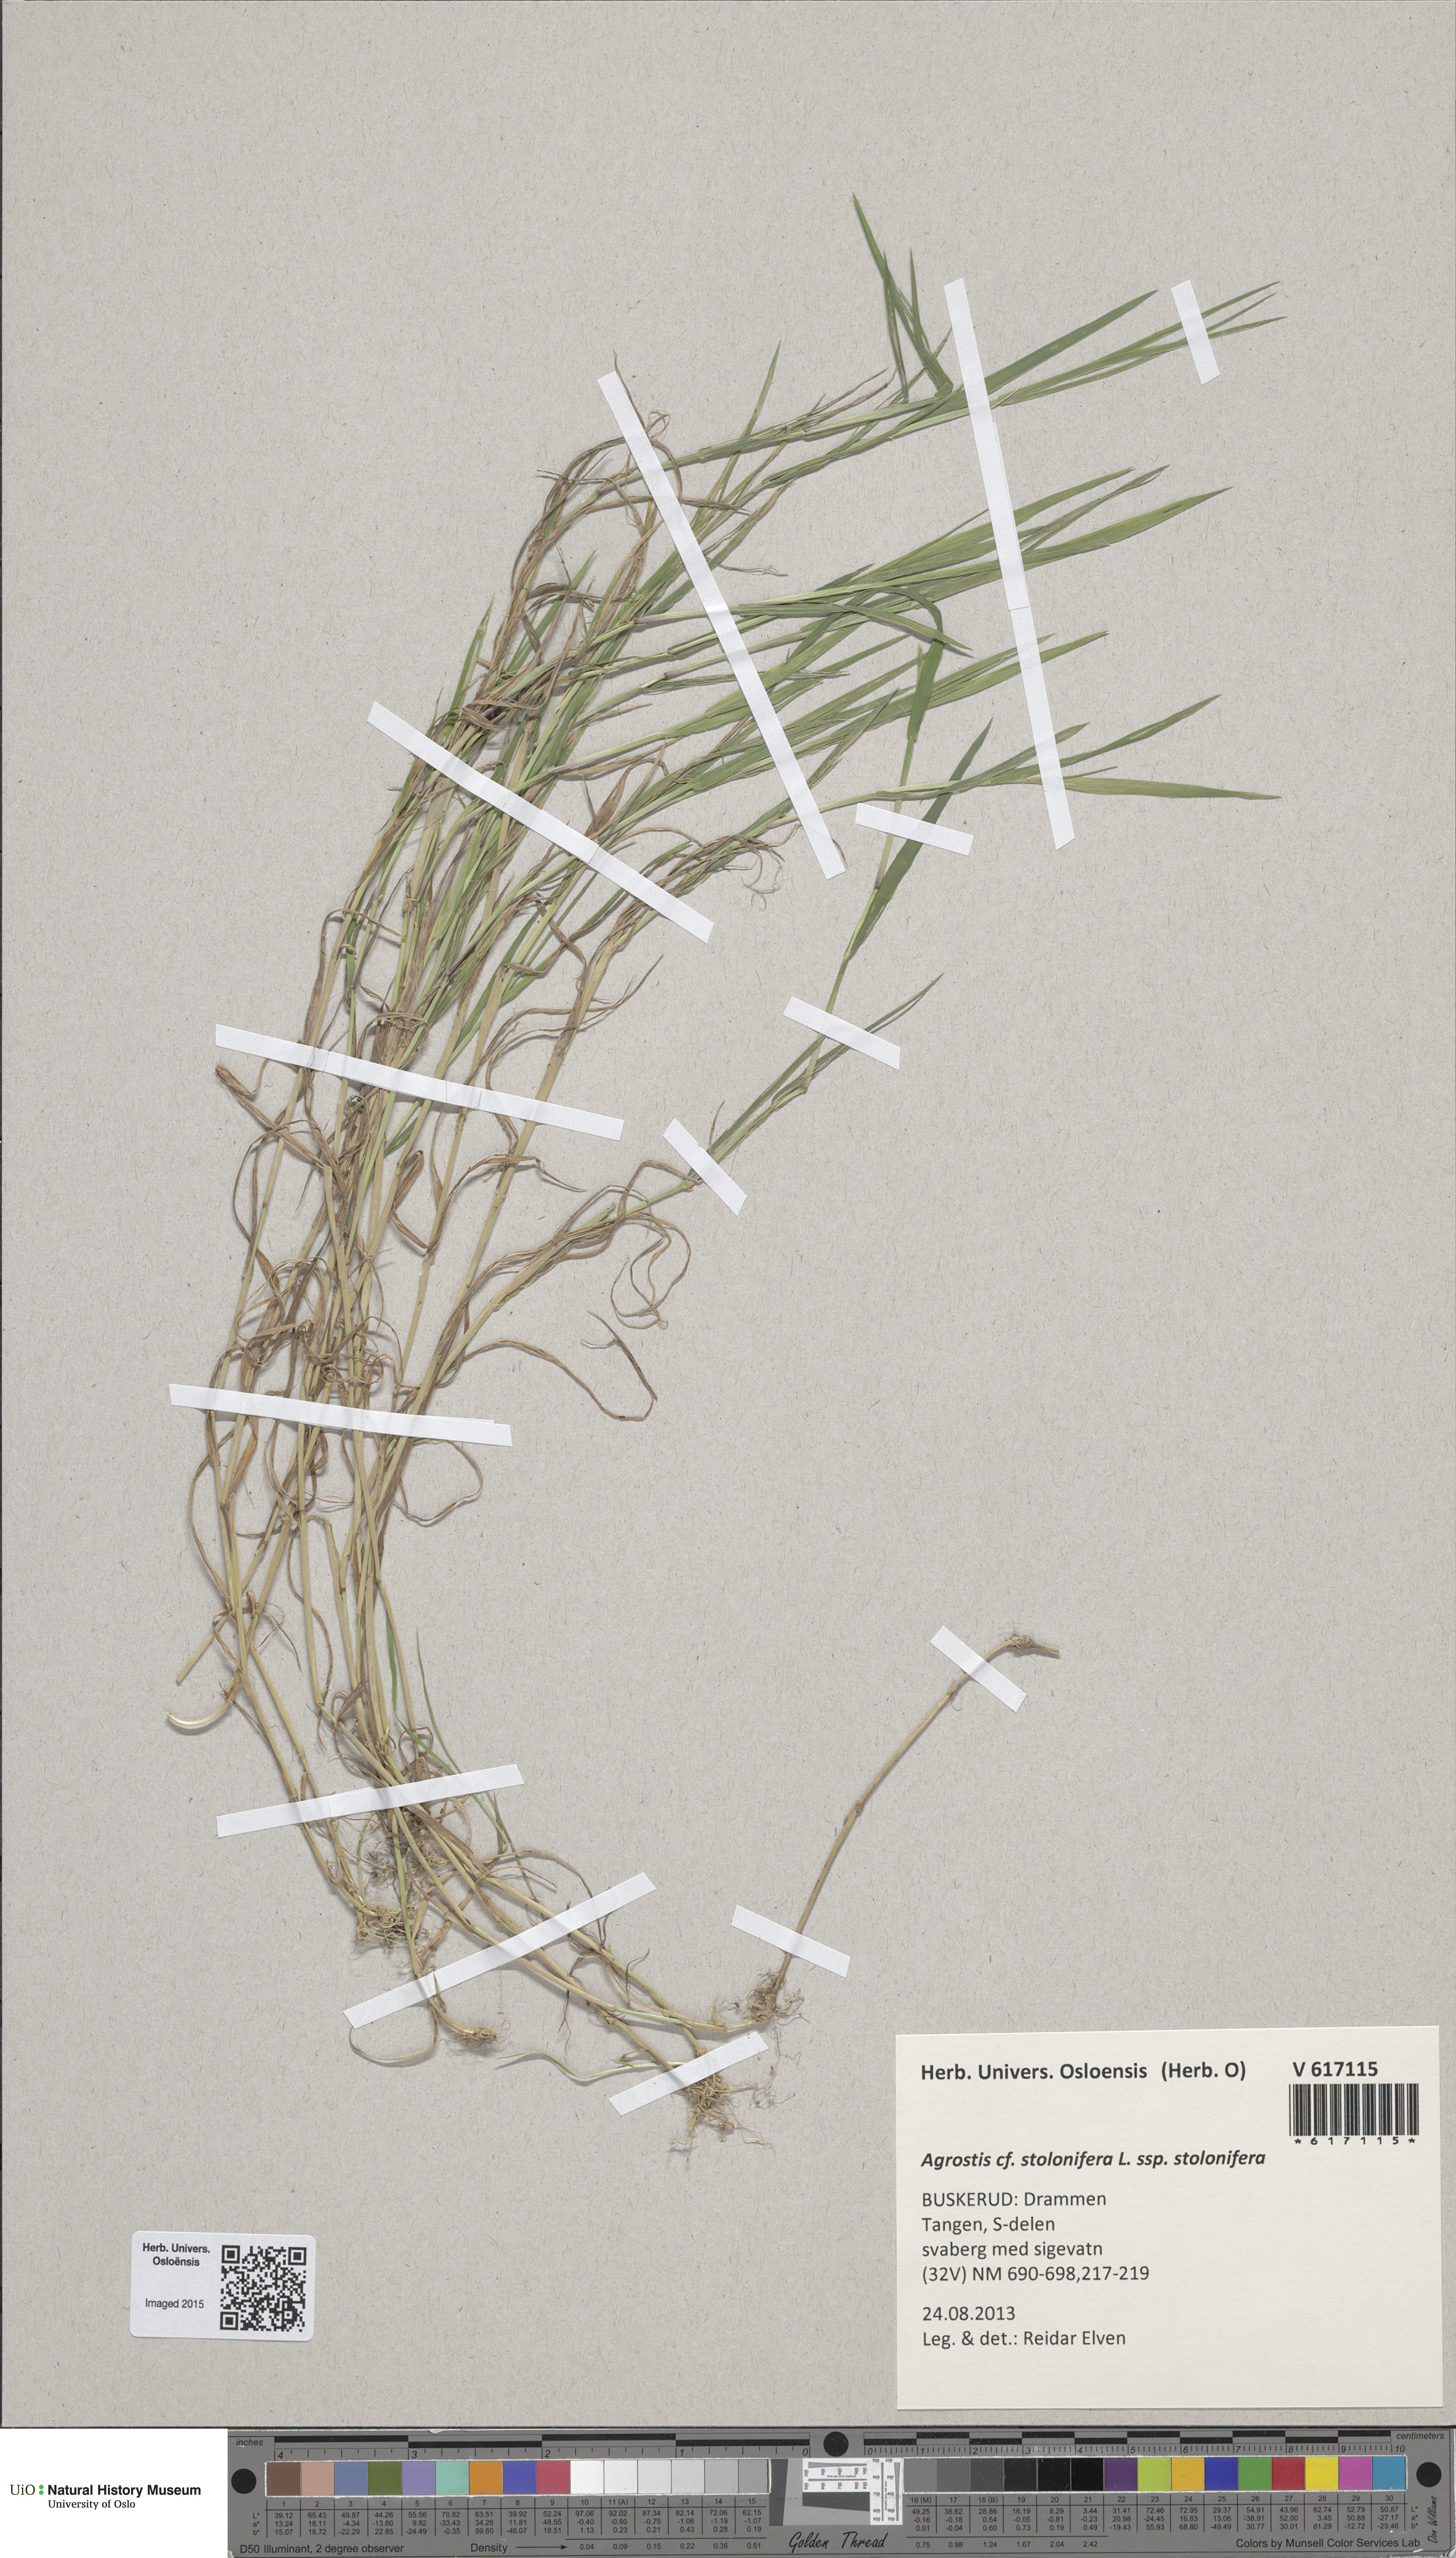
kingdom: Plantae
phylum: Tracheophyta
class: Liliopsida
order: Poales
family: Poaceae
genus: Agrostis
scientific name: Agrostis stolonifera
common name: Creeping bentgrass
